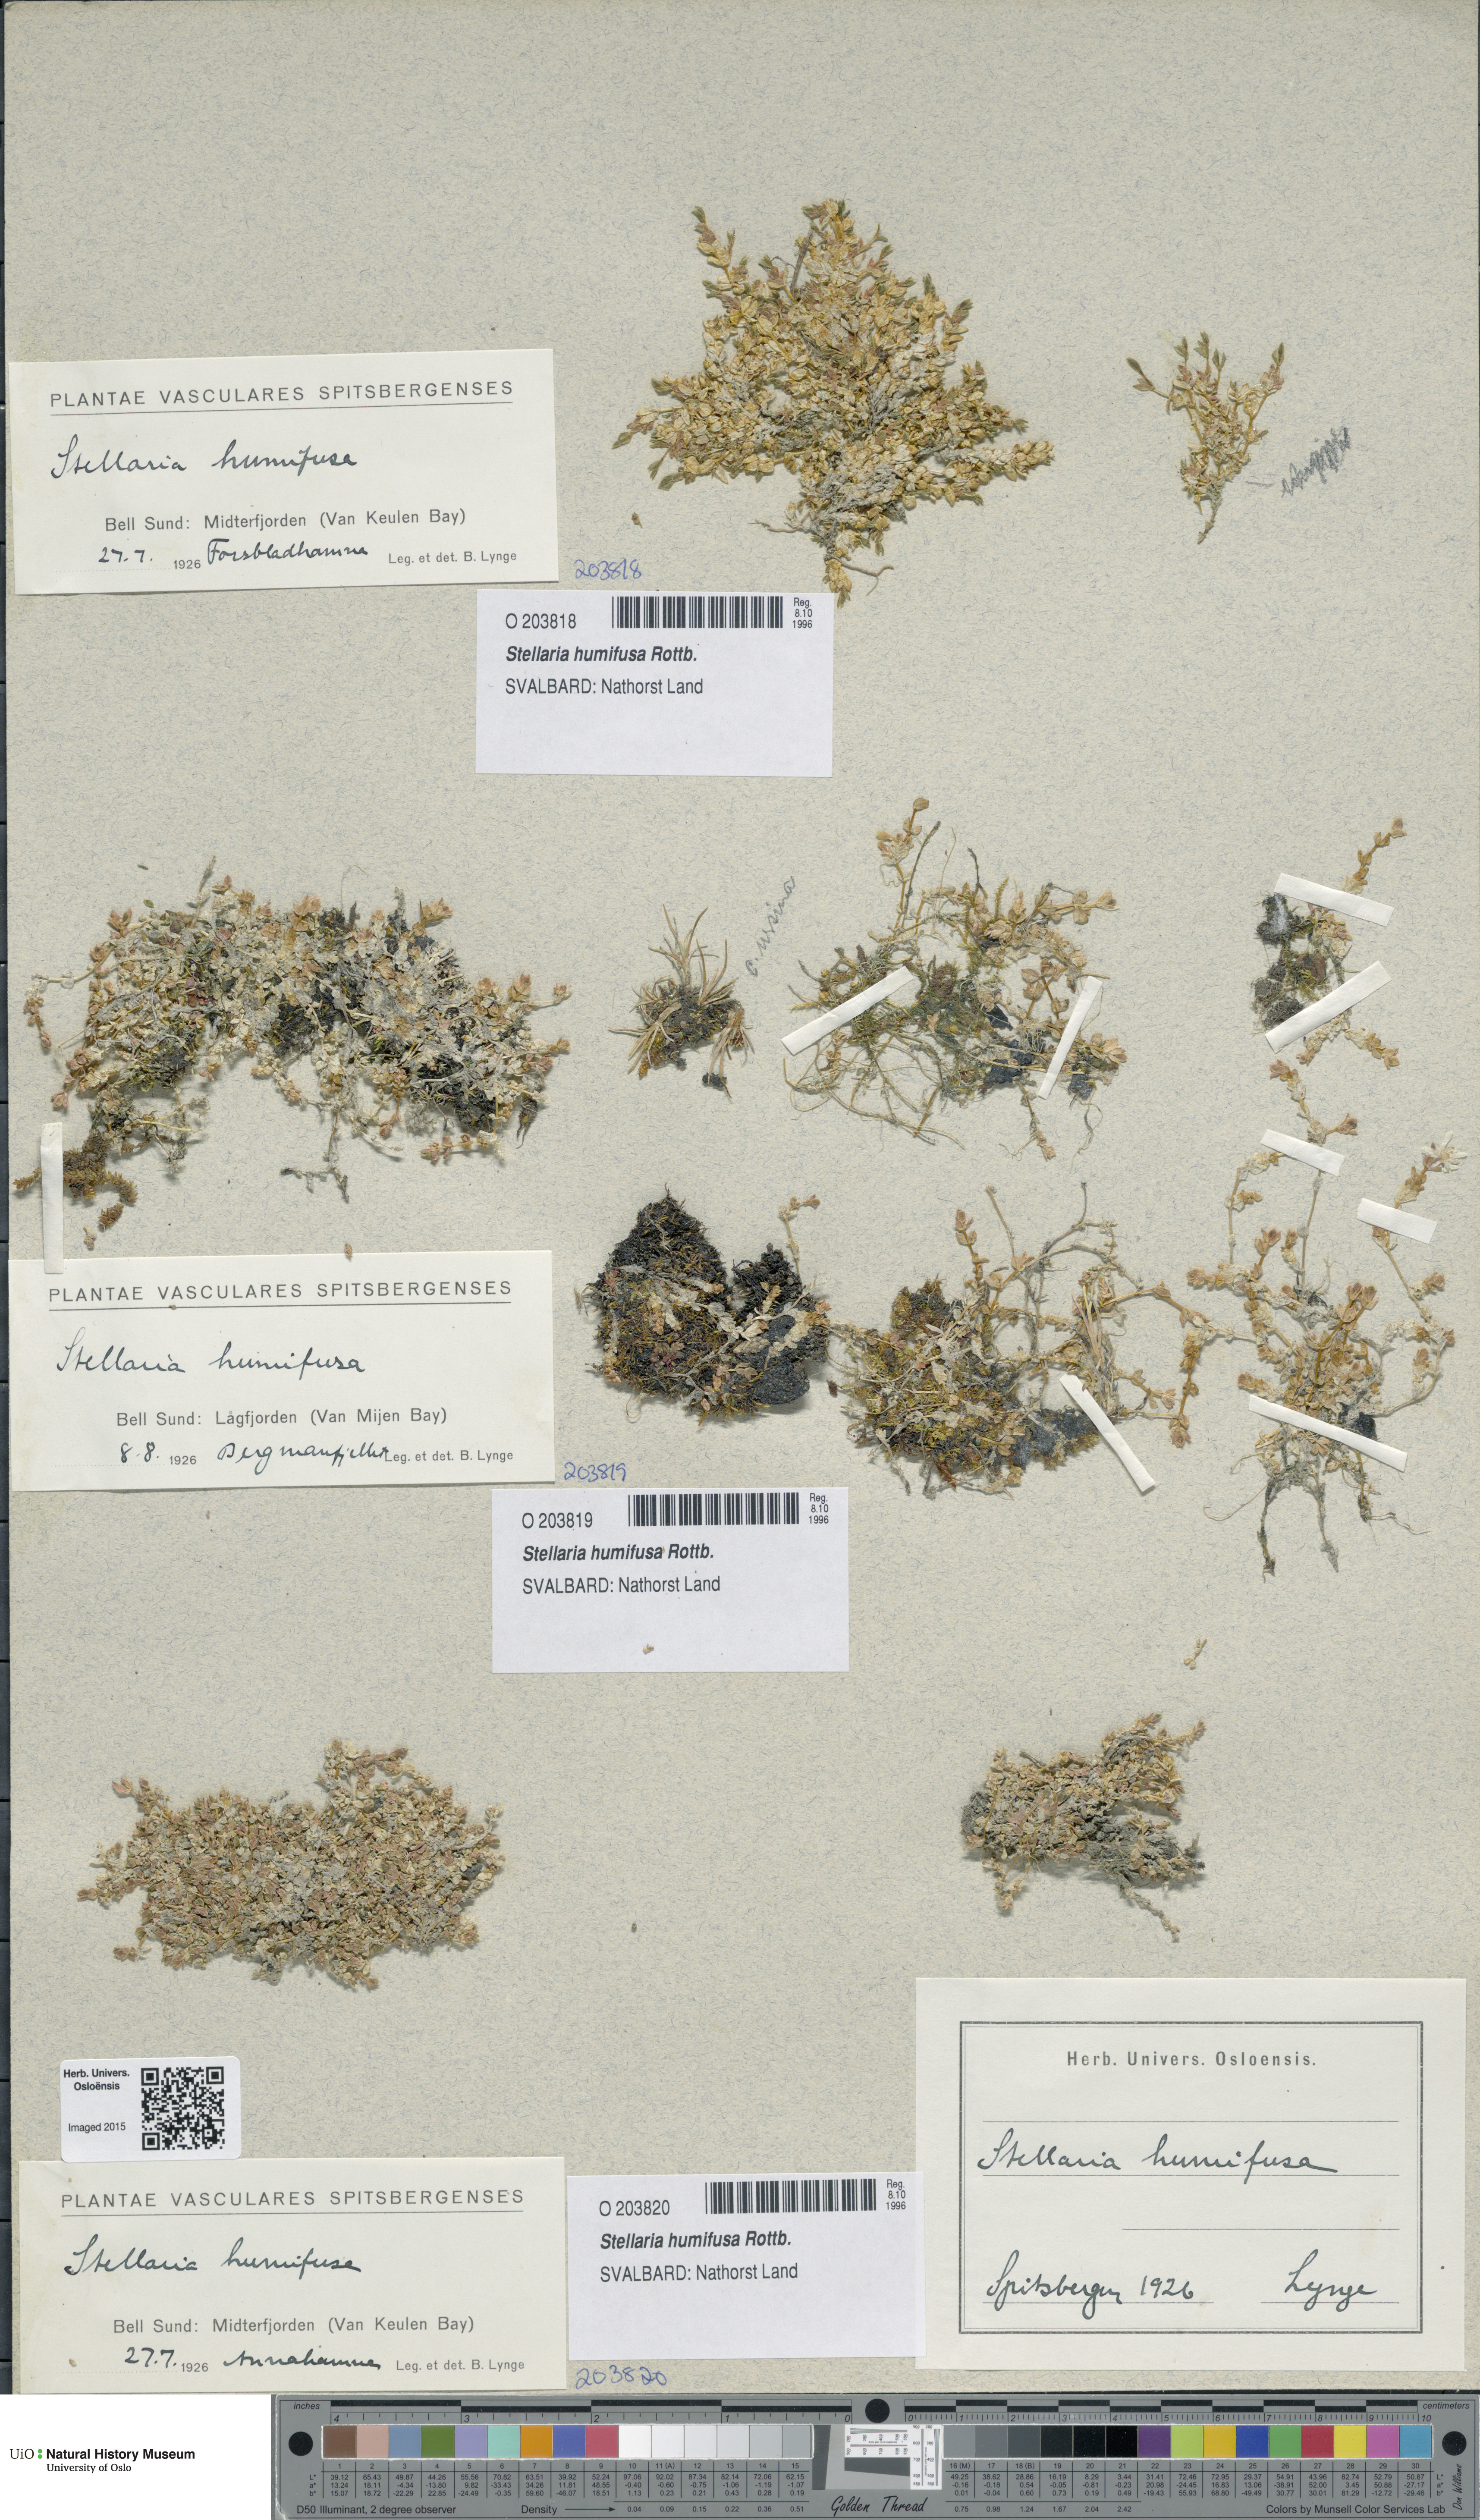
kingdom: Plantae
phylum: Tracheophyta
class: Magnoliopsida
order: Caryophyllales
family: Caryophyllaceae
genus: Stellaria
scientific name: Stellaria humifusa
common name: Creeping starwort
